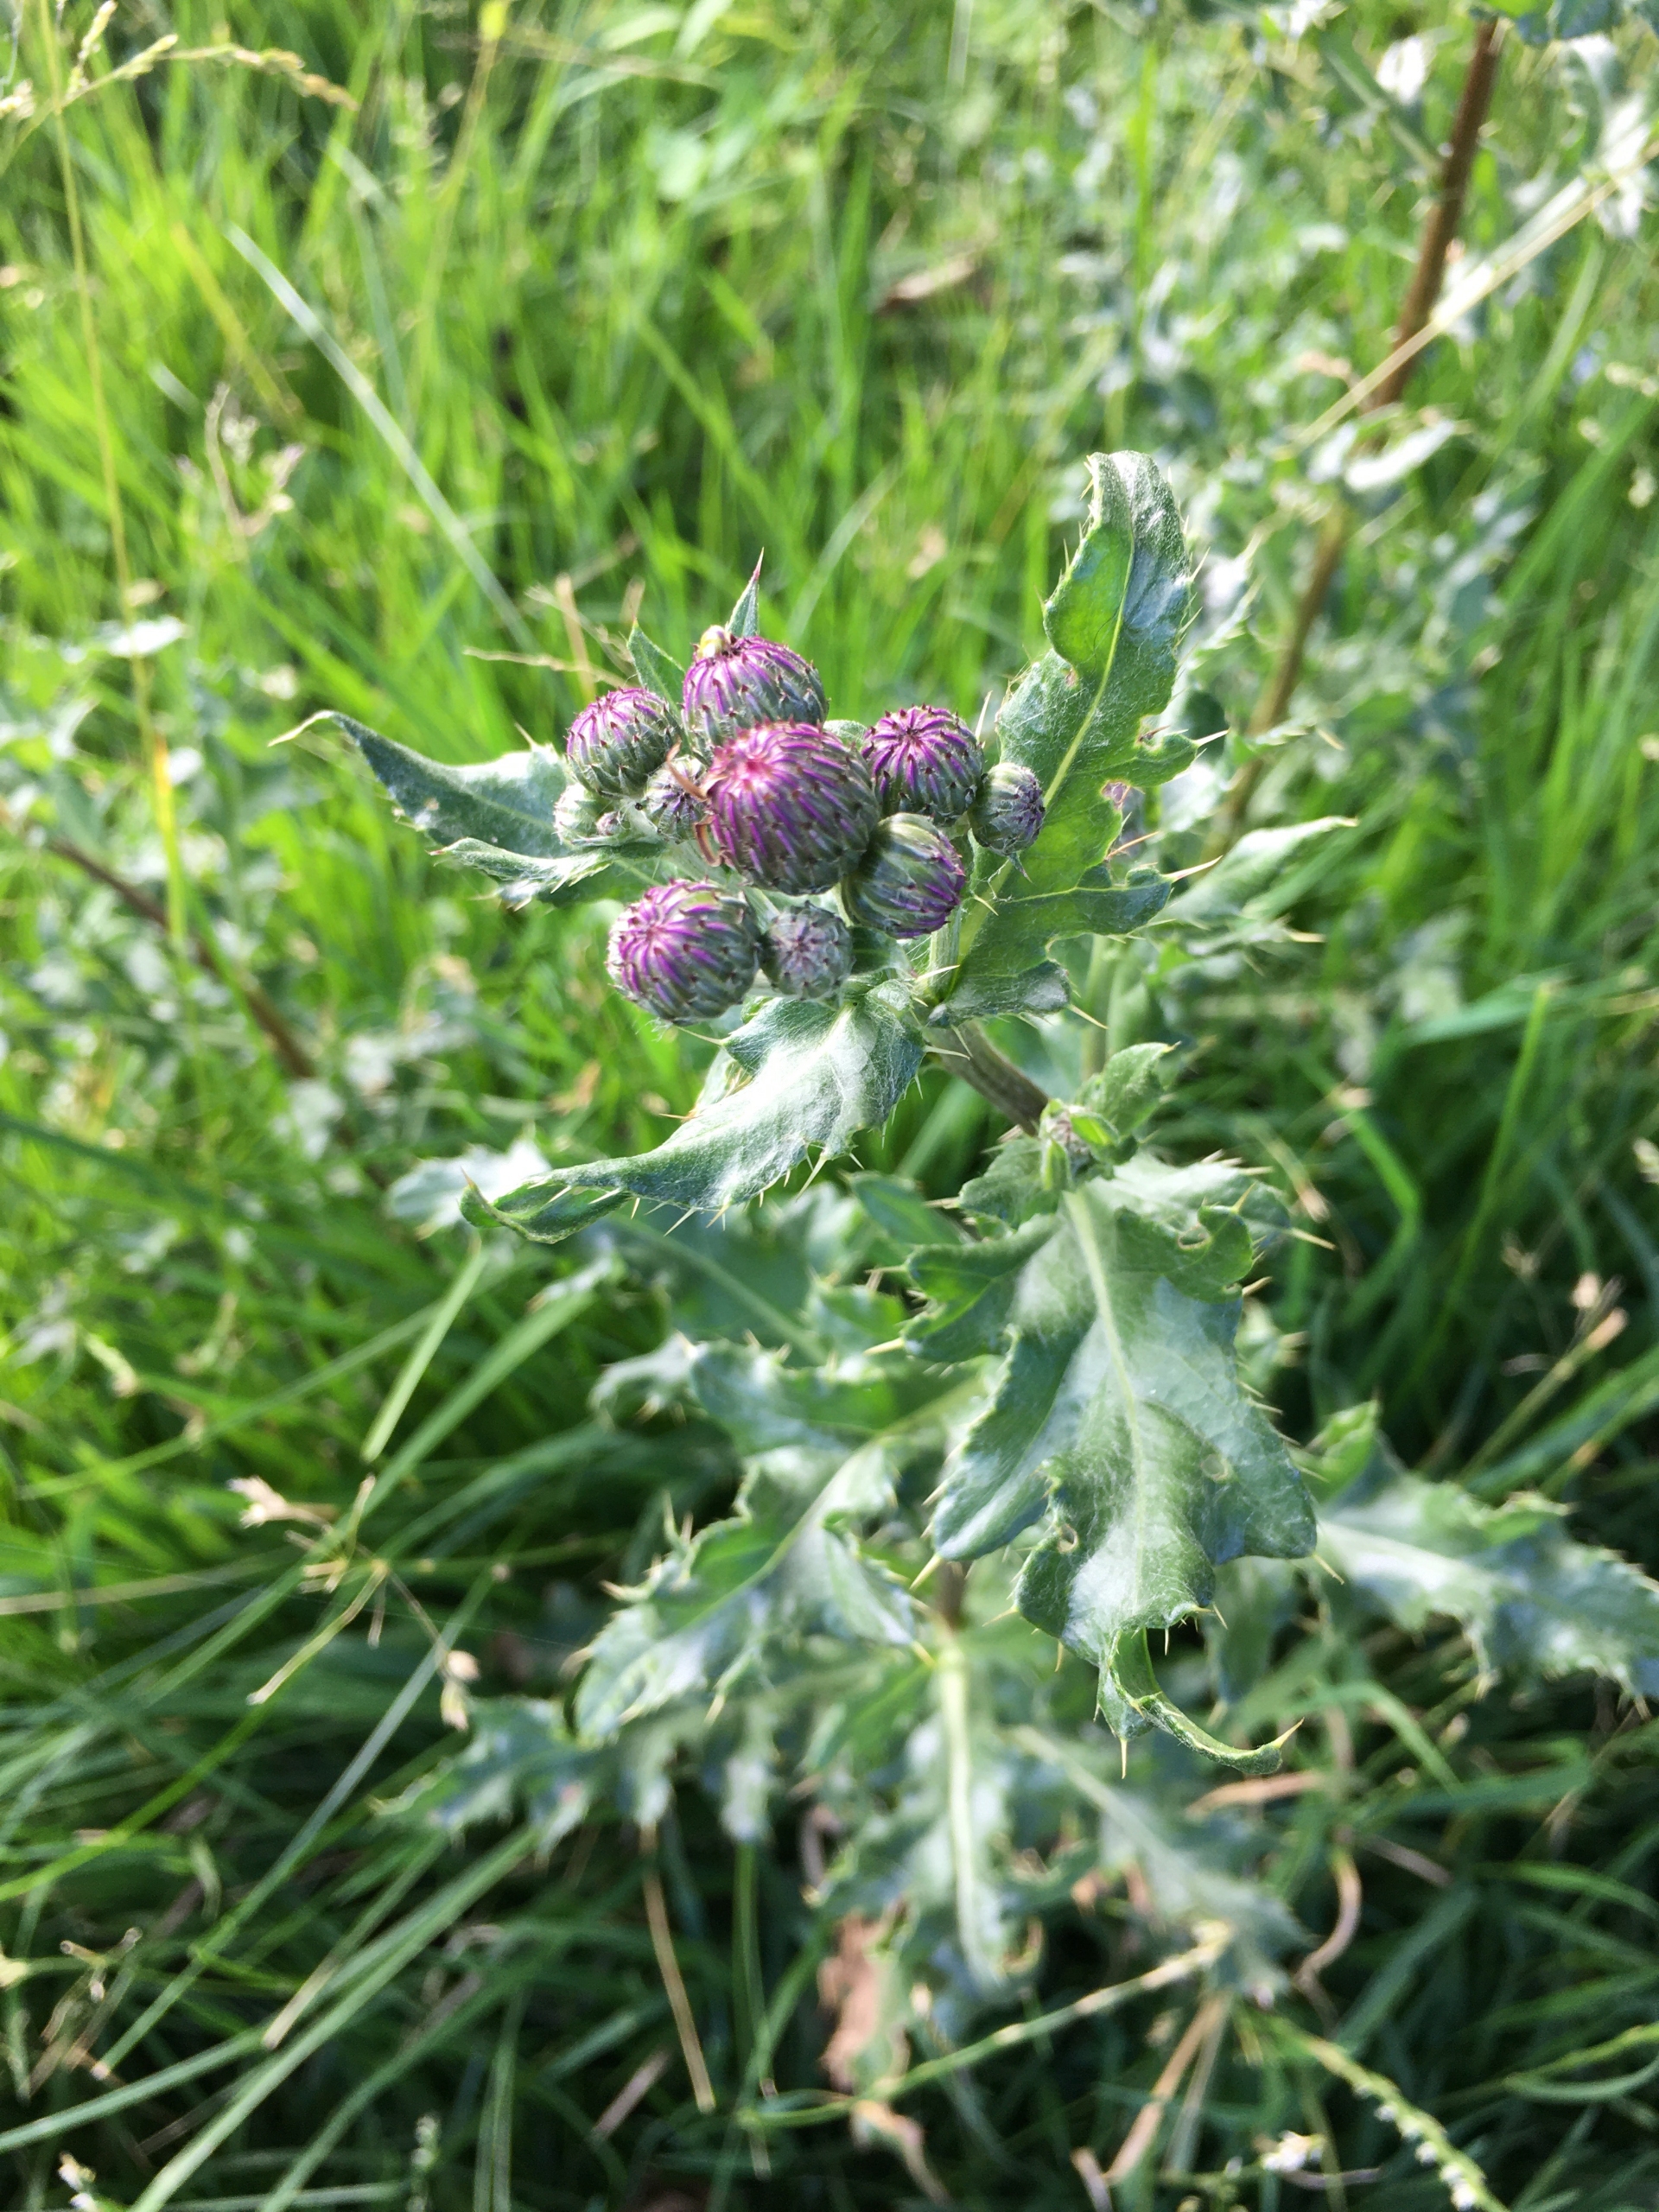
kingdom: Plantae
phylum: Tracheophyta
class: Magnoliopsida
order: Asterales
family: Asteraceae
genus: Cirsium
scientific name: Cirsium arvense
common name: Ager-tidsel
